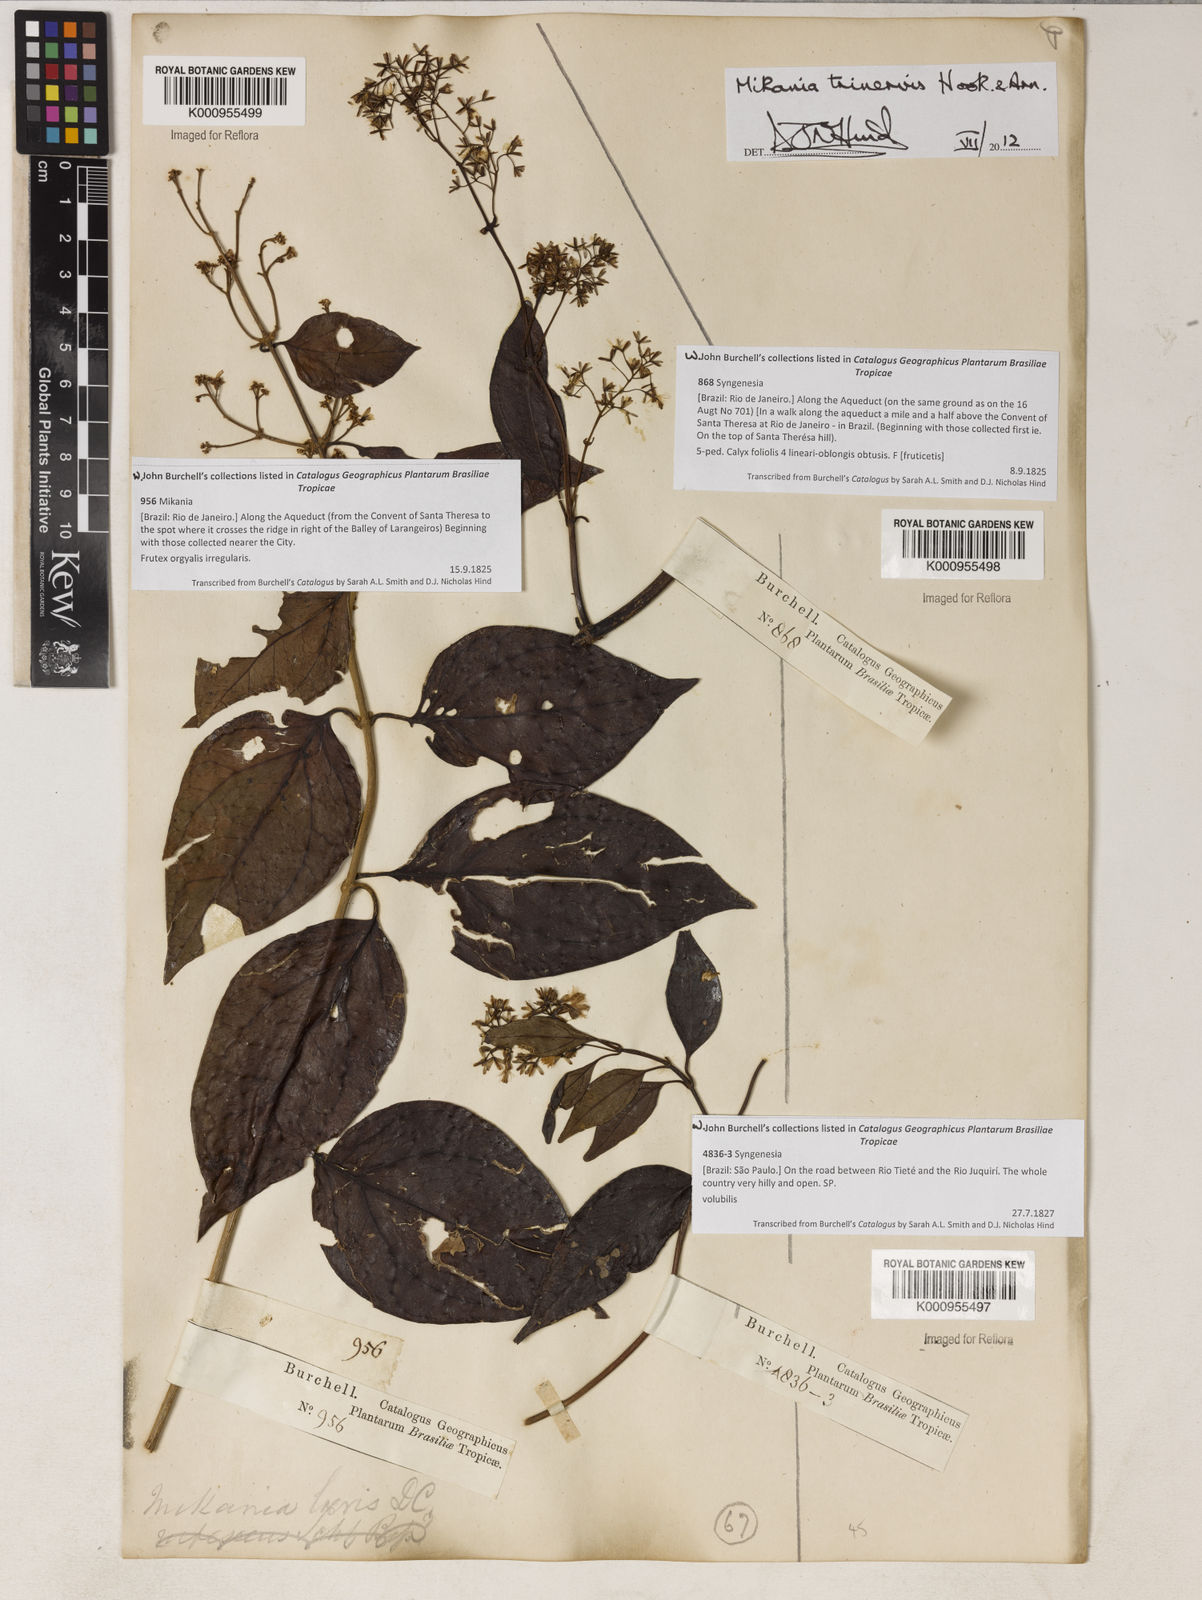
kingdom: Plantae
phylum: Tracheophyta
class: Magnoliopsida
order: Asterales
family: Asteraceae
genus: Mikania
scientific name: Mikania trinervis
